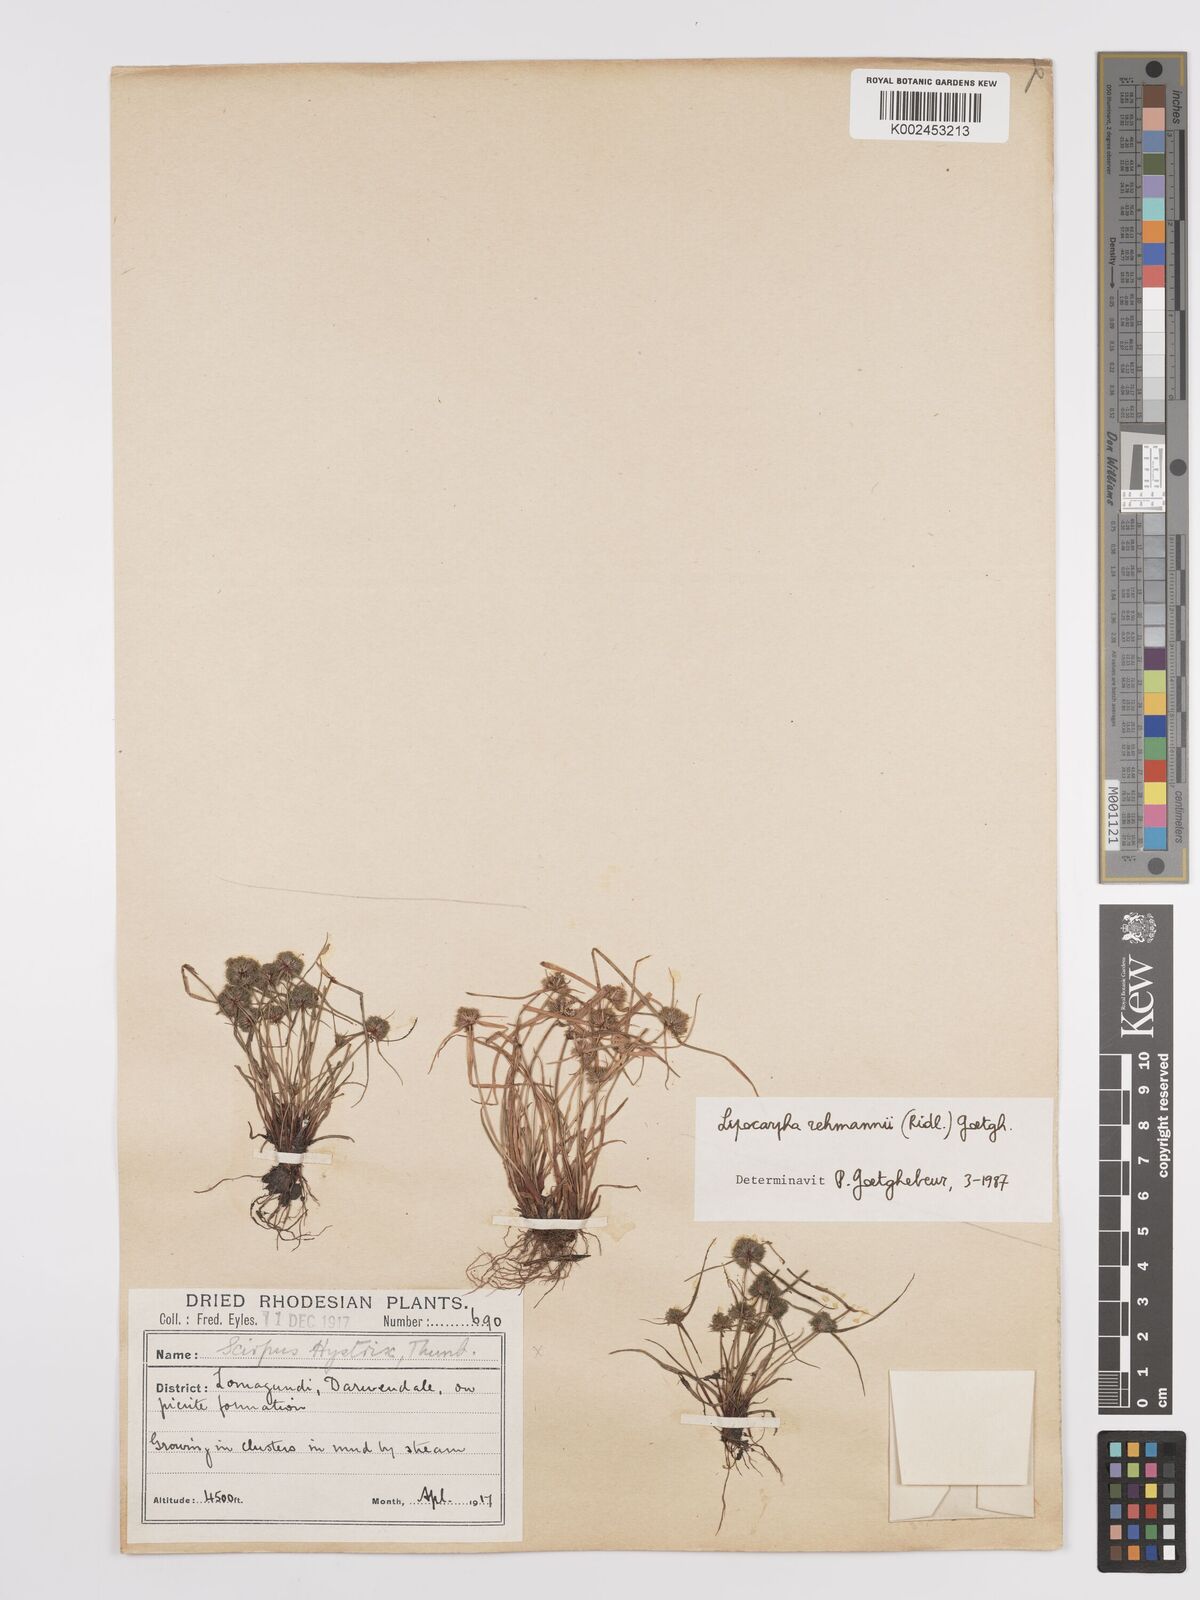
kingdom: Plantae
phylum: Tracheophyta
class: Liliopsida
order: Poales
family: Cyperaceae
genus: Cyperus
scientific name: Cyperus sanguinolentus
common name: Purpleglume flatsedge
